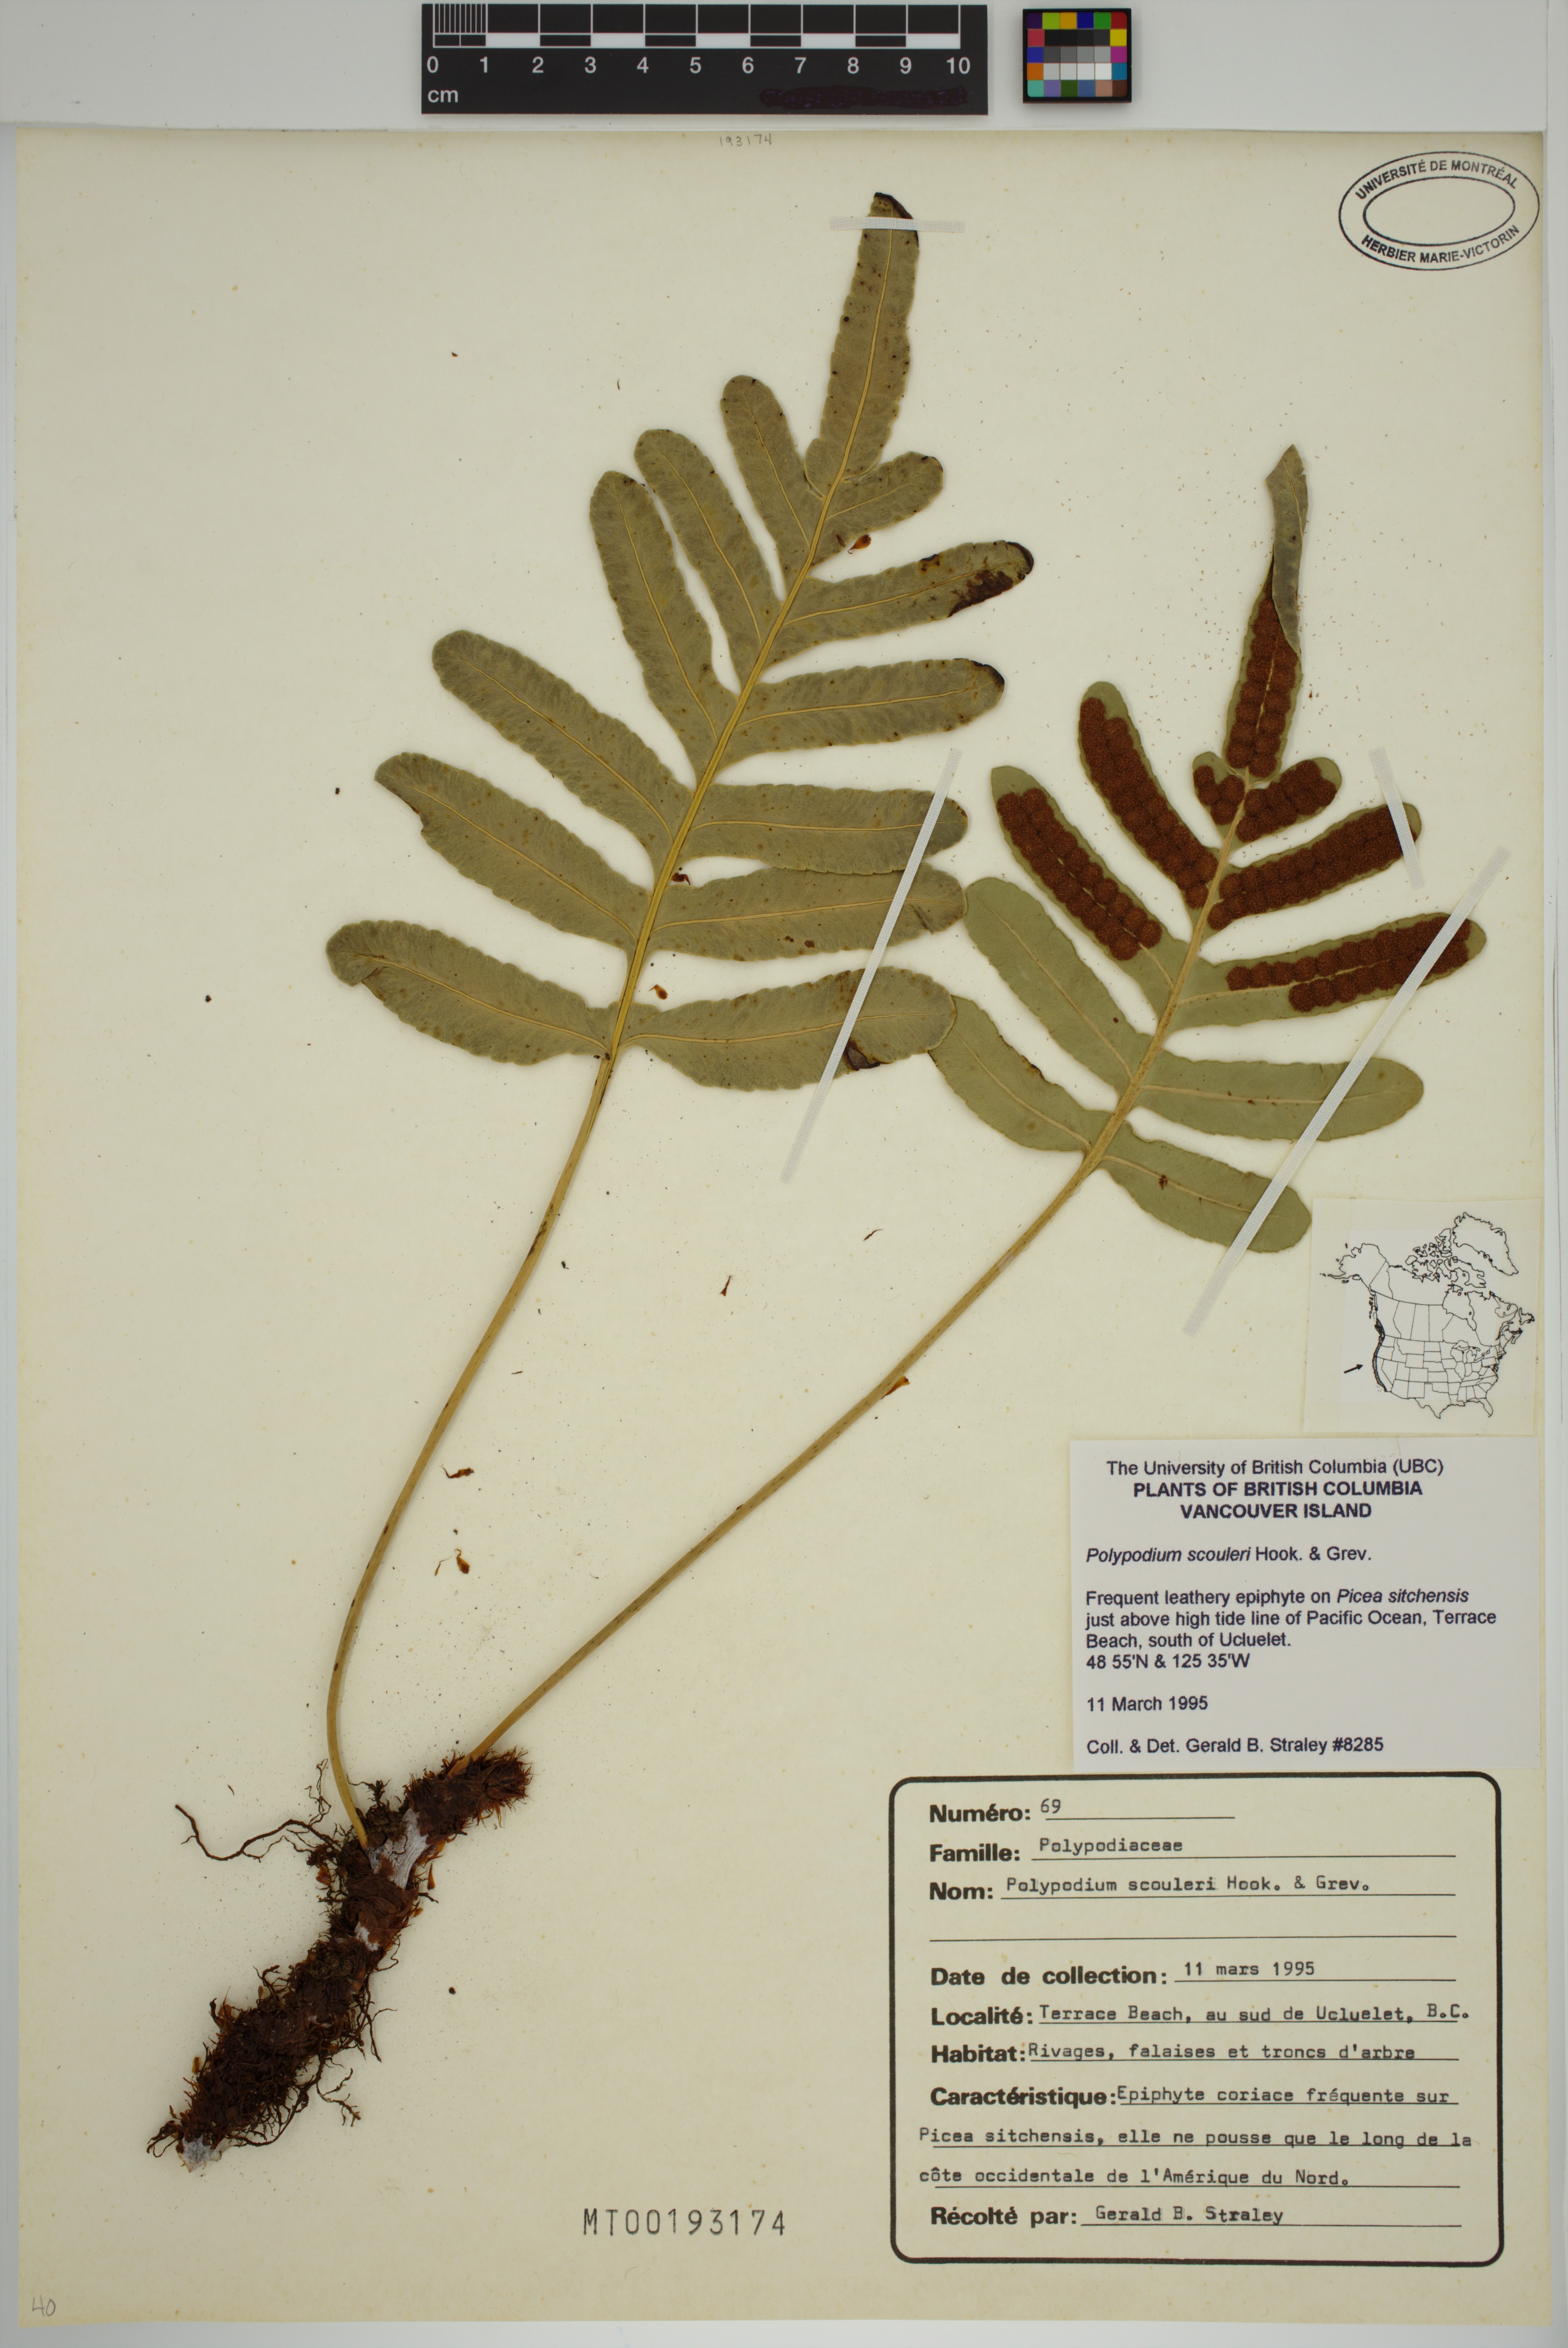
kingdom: Plantae
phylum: Tracheophyta
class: Polypodiopsida
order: Polypodiales
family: Polypodiaceae
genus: Polypodium
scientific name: Polypodium scouleri
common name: Scouler's polypody
